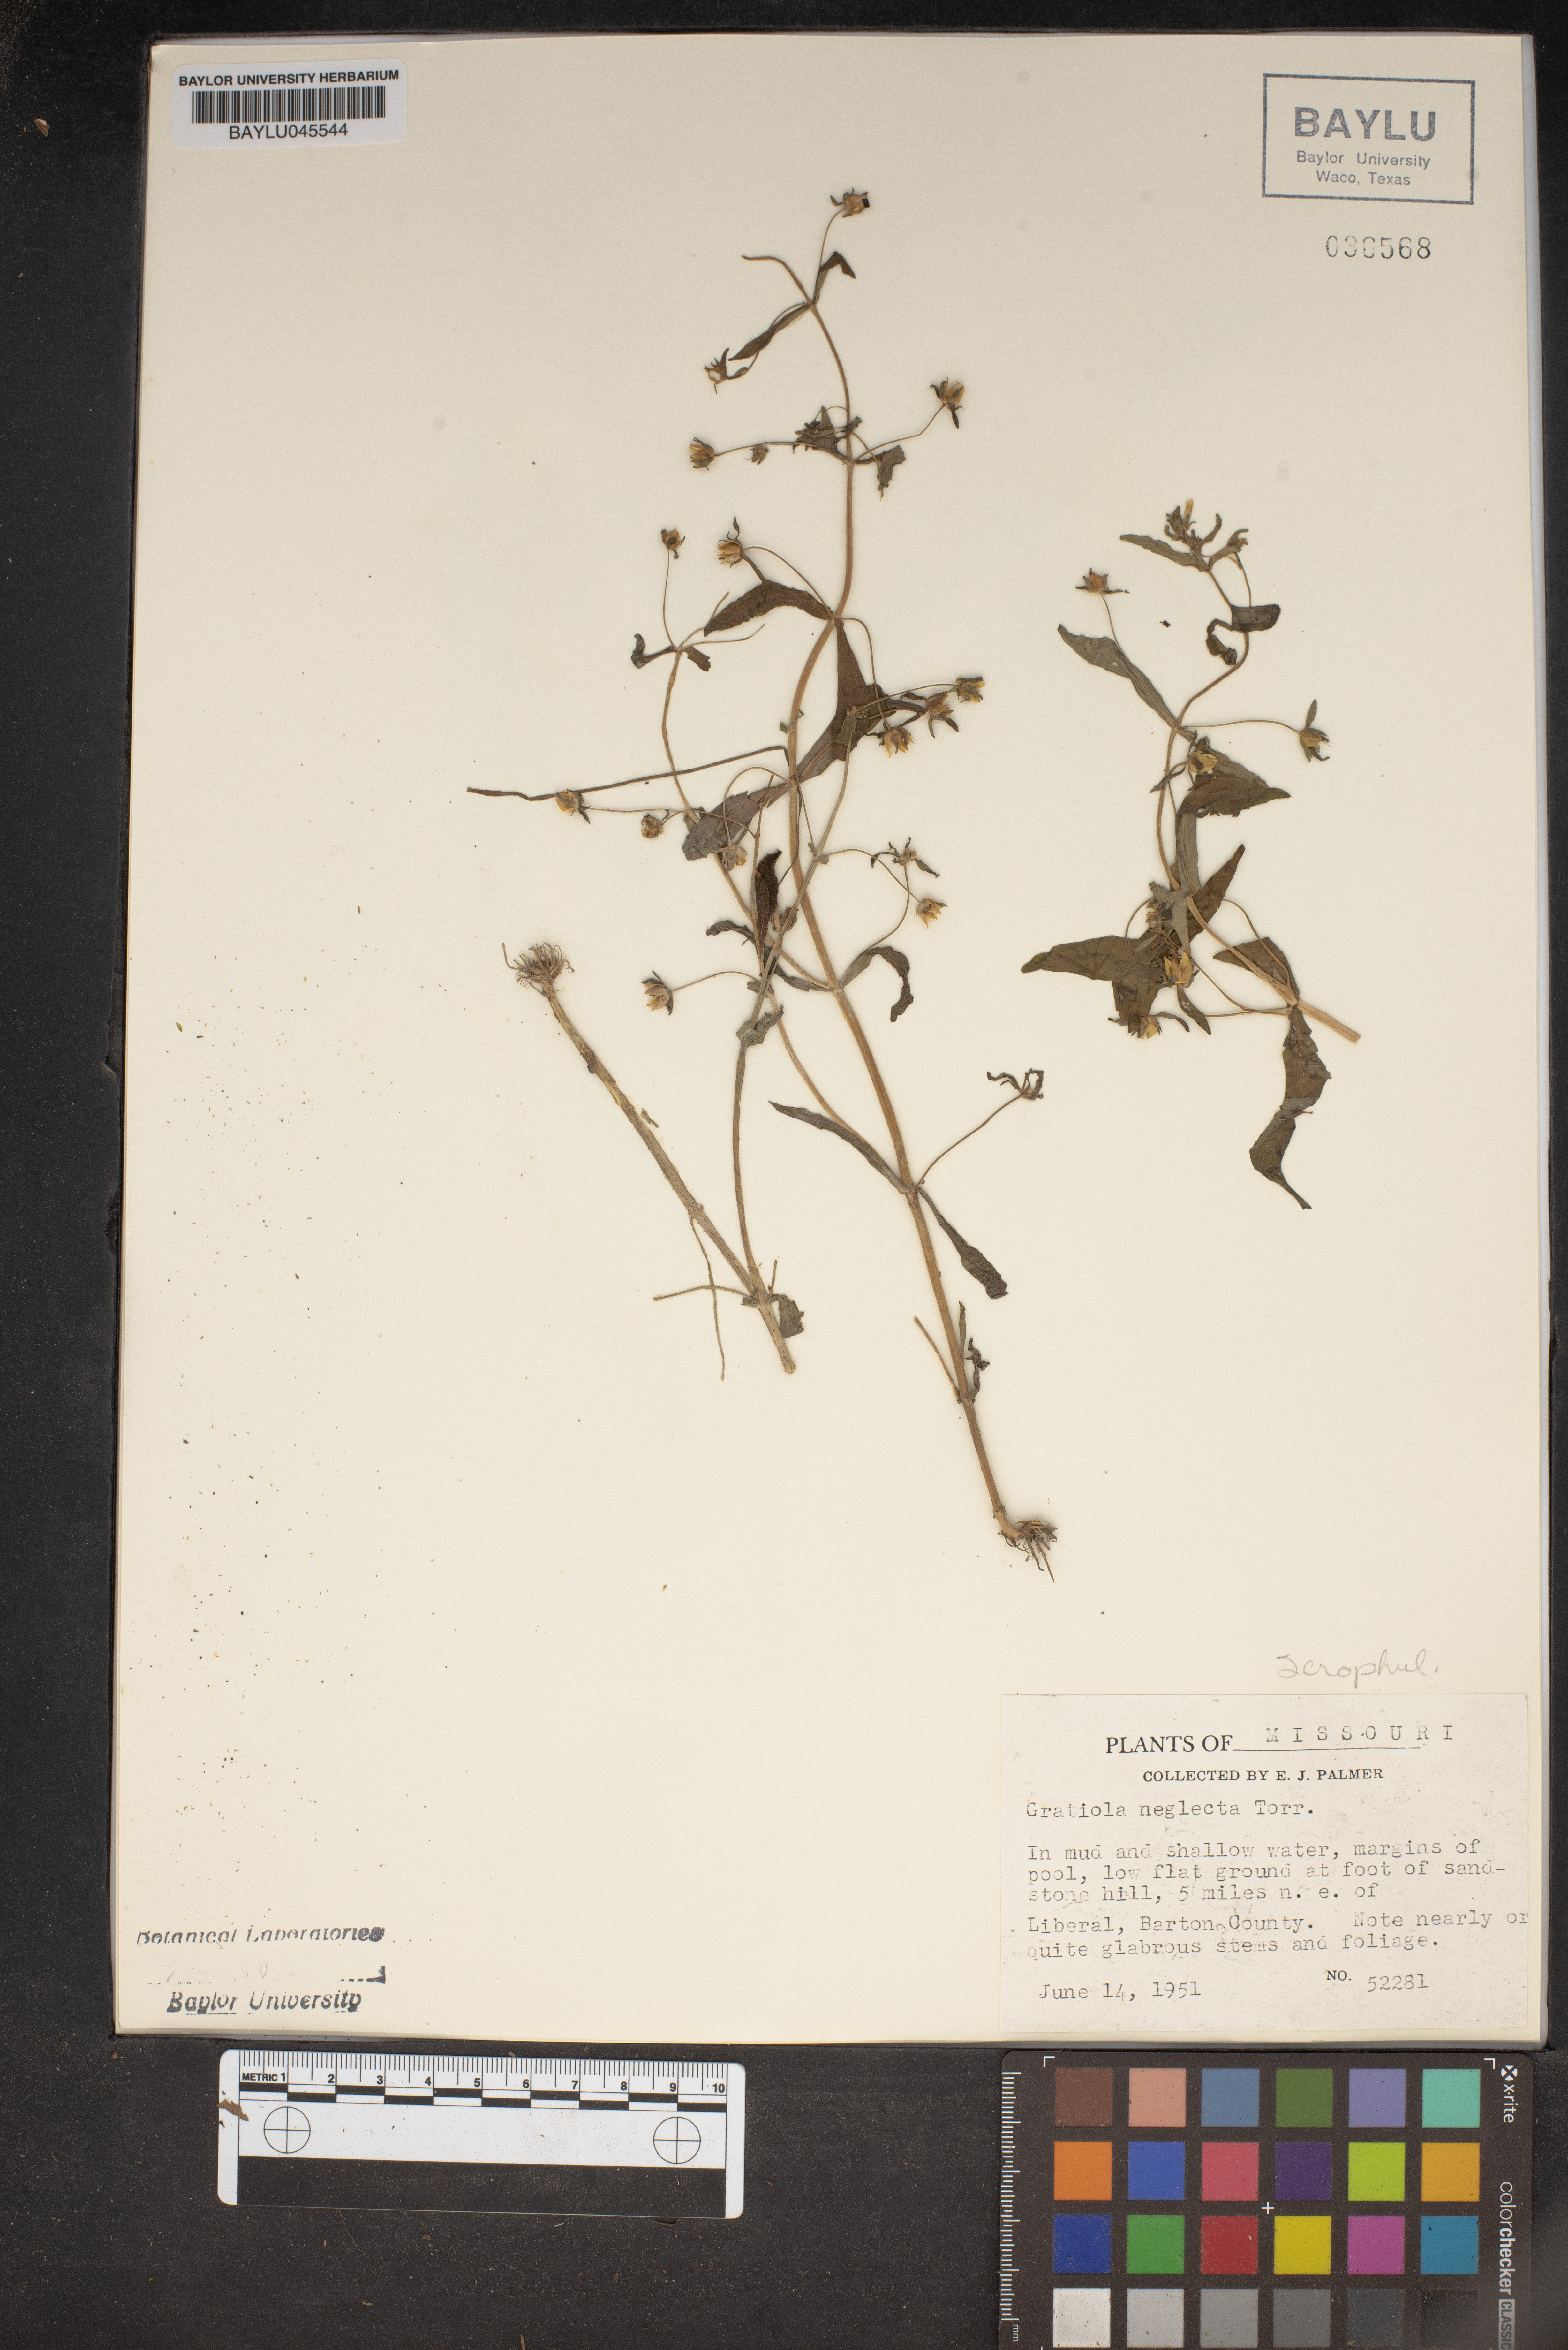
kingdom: Plantae
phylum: Tracheophyta
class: Magnoliopsida
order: Lamiales
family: Plantaginaceae
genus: Gratiola
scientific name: Gratiola neglecta
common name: American hedge-hyssop
